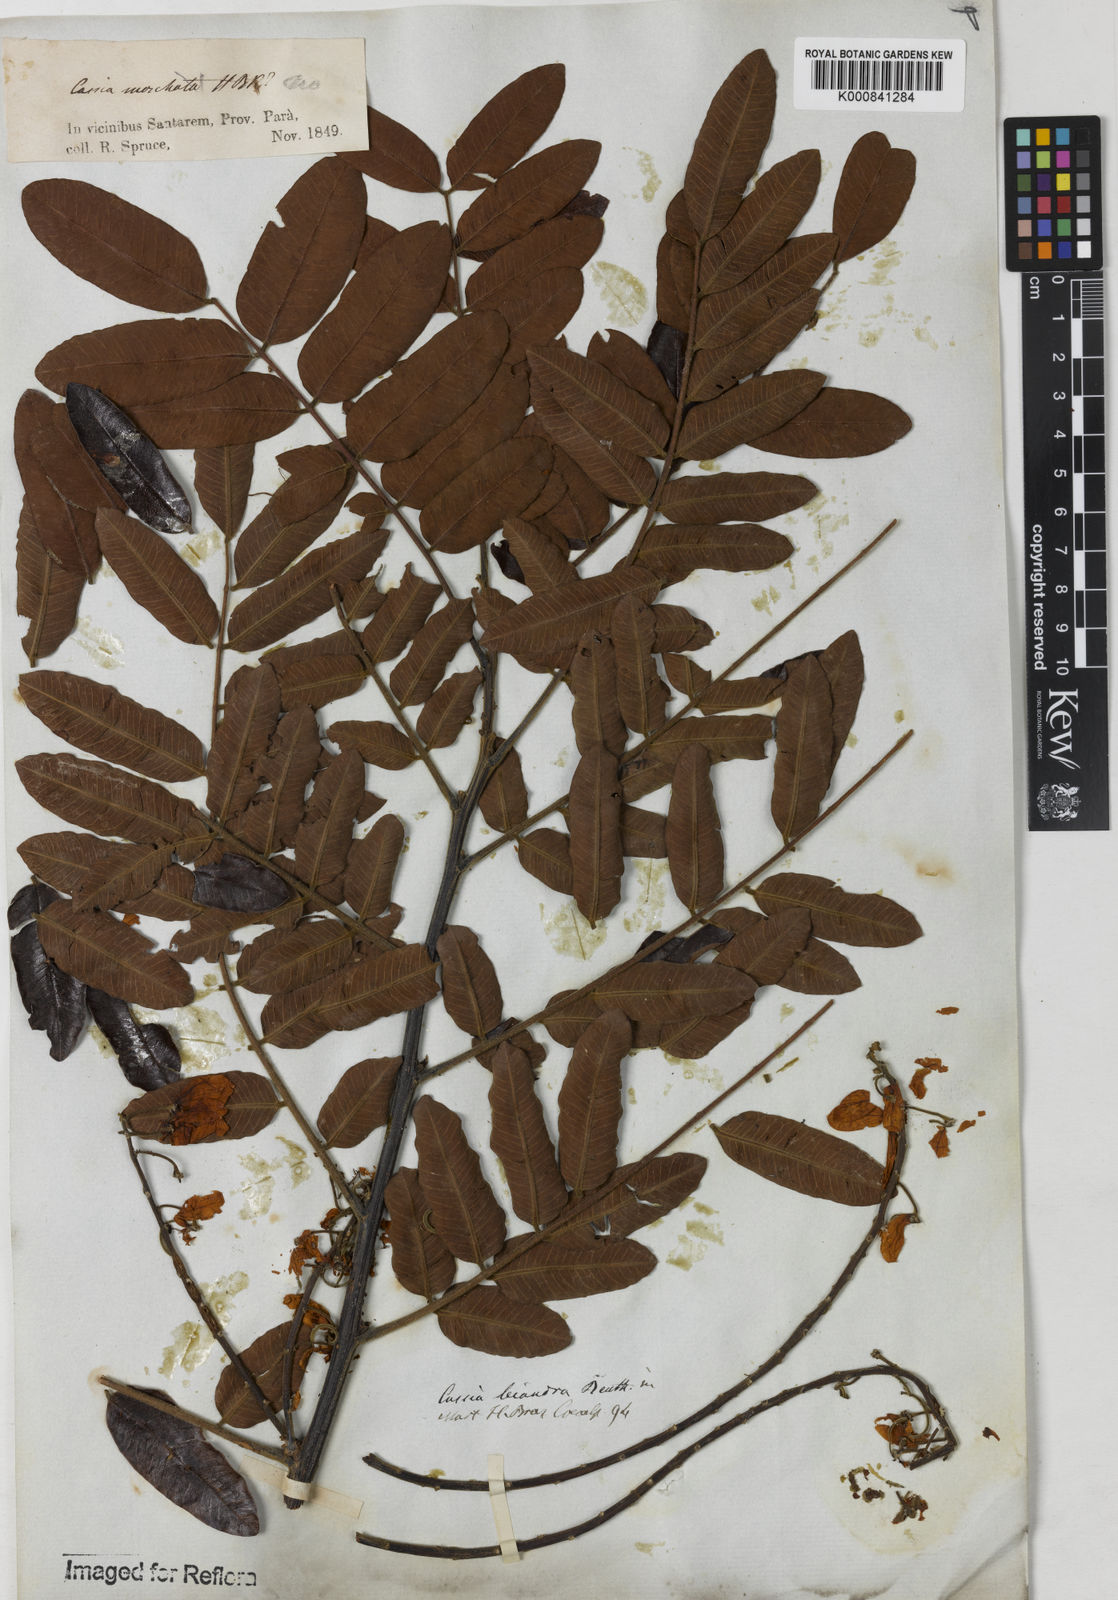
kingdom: Plantae
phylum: Tracheophyta
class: Magnoliopsida
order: Fabales
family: Fabaceae
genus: Cassia
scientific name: Cassia leiandra
